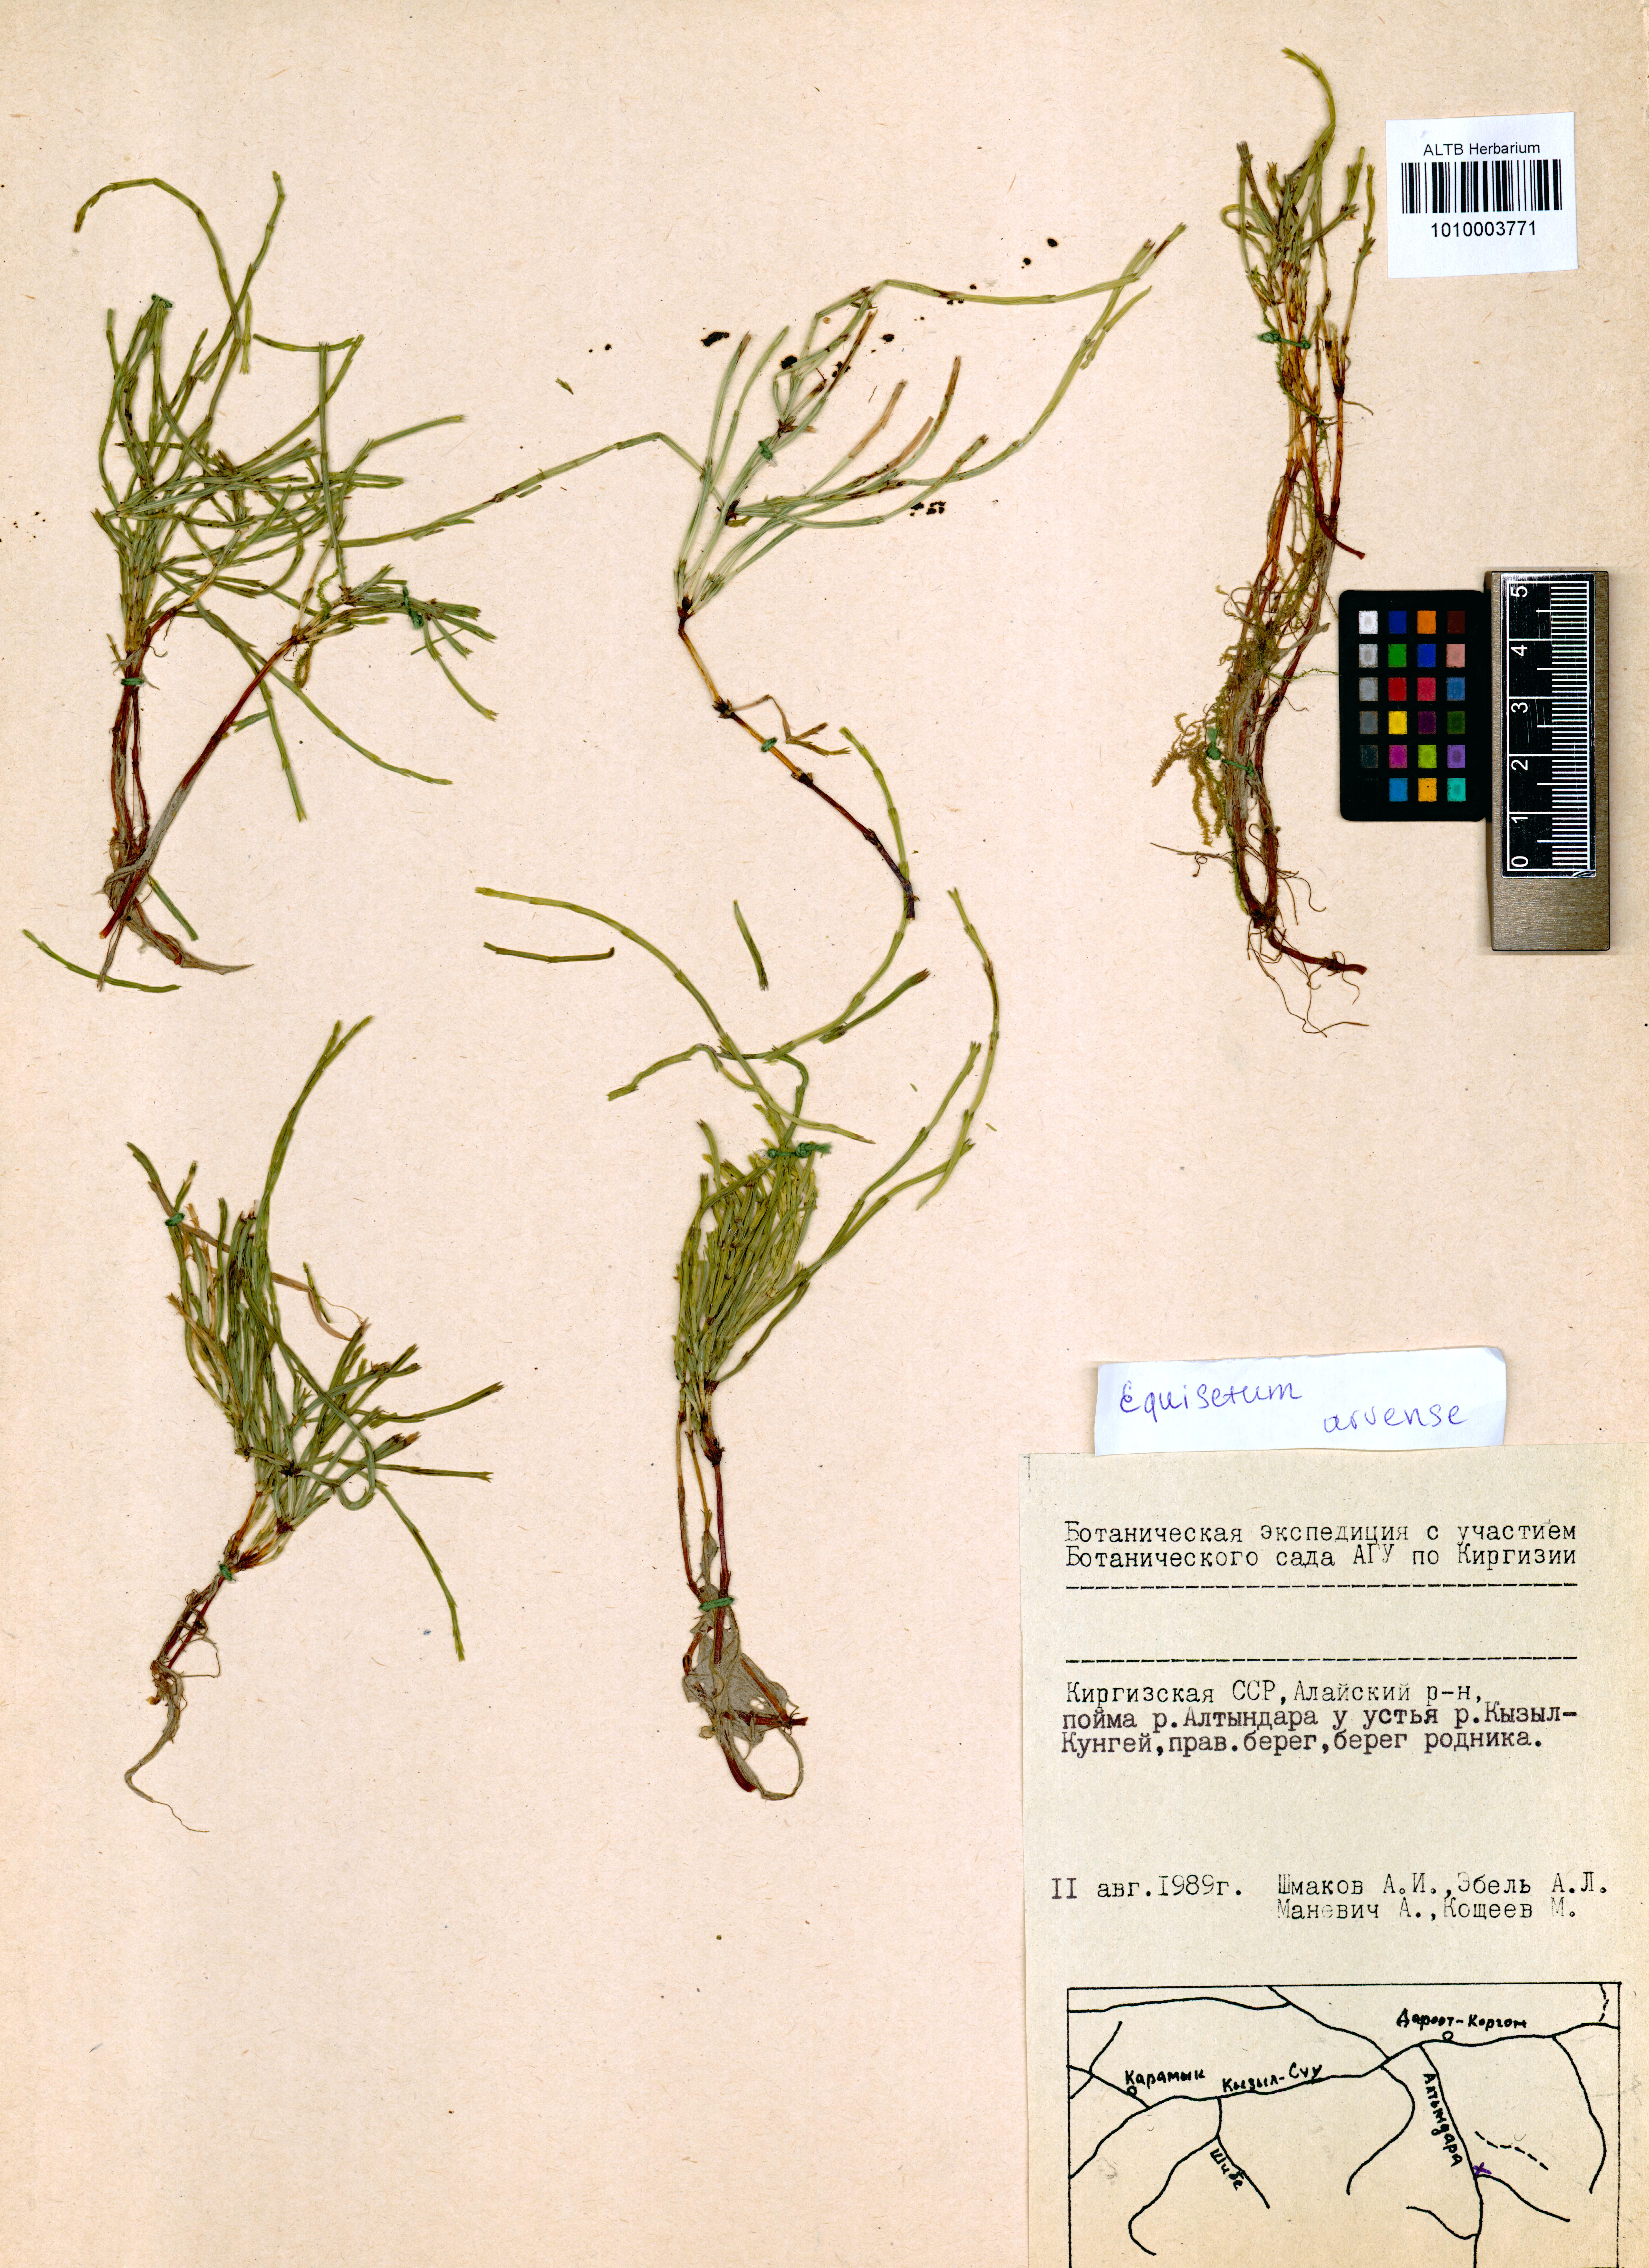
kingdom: Plantae
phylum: Tracheophyta
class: Polypodiopsida
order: Equisetales
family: Equisetaceae
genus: Equisetum
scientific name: Equisetum arvense
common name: Field horsetail
